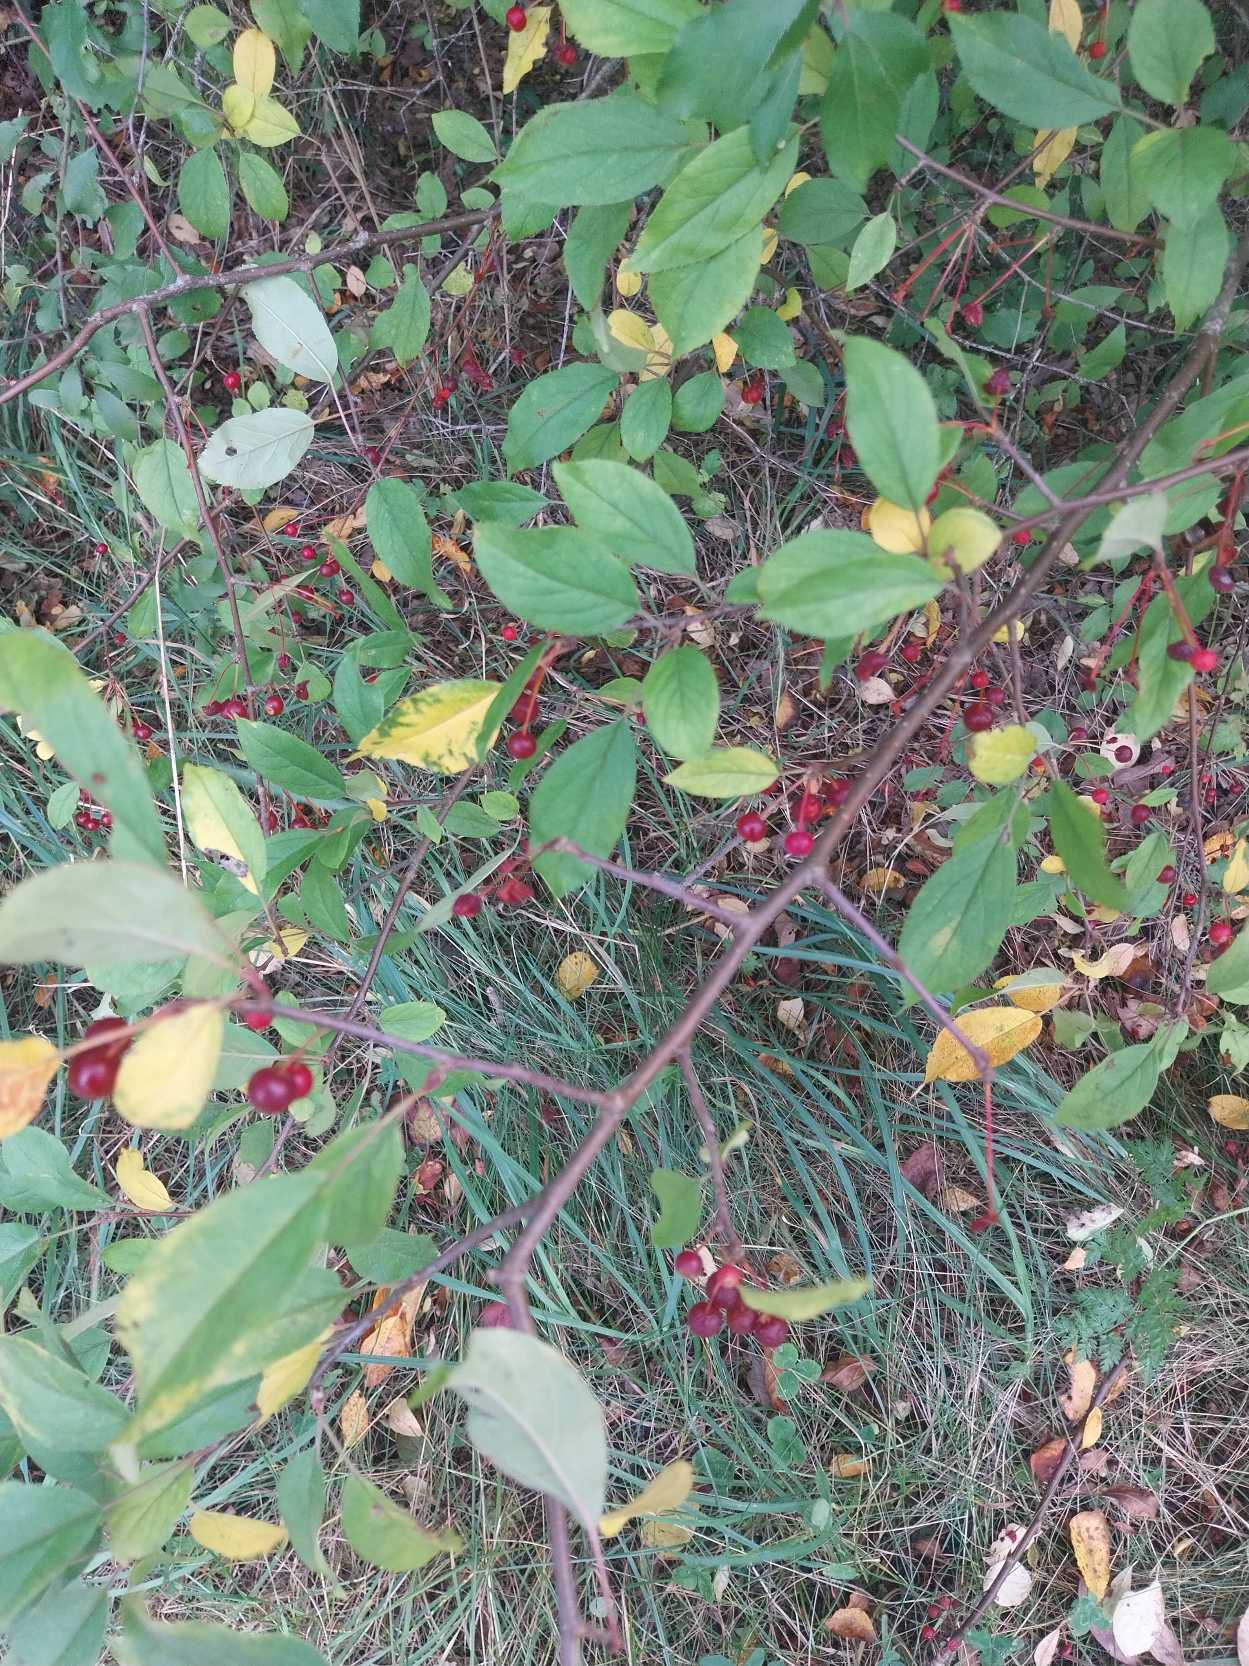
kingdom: Plantae
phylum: Tracheophyta
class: Magnoliopsida
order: Rosales
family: Rosaceae
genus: Malus
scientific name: Malus toringo
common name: Sargents-æble
